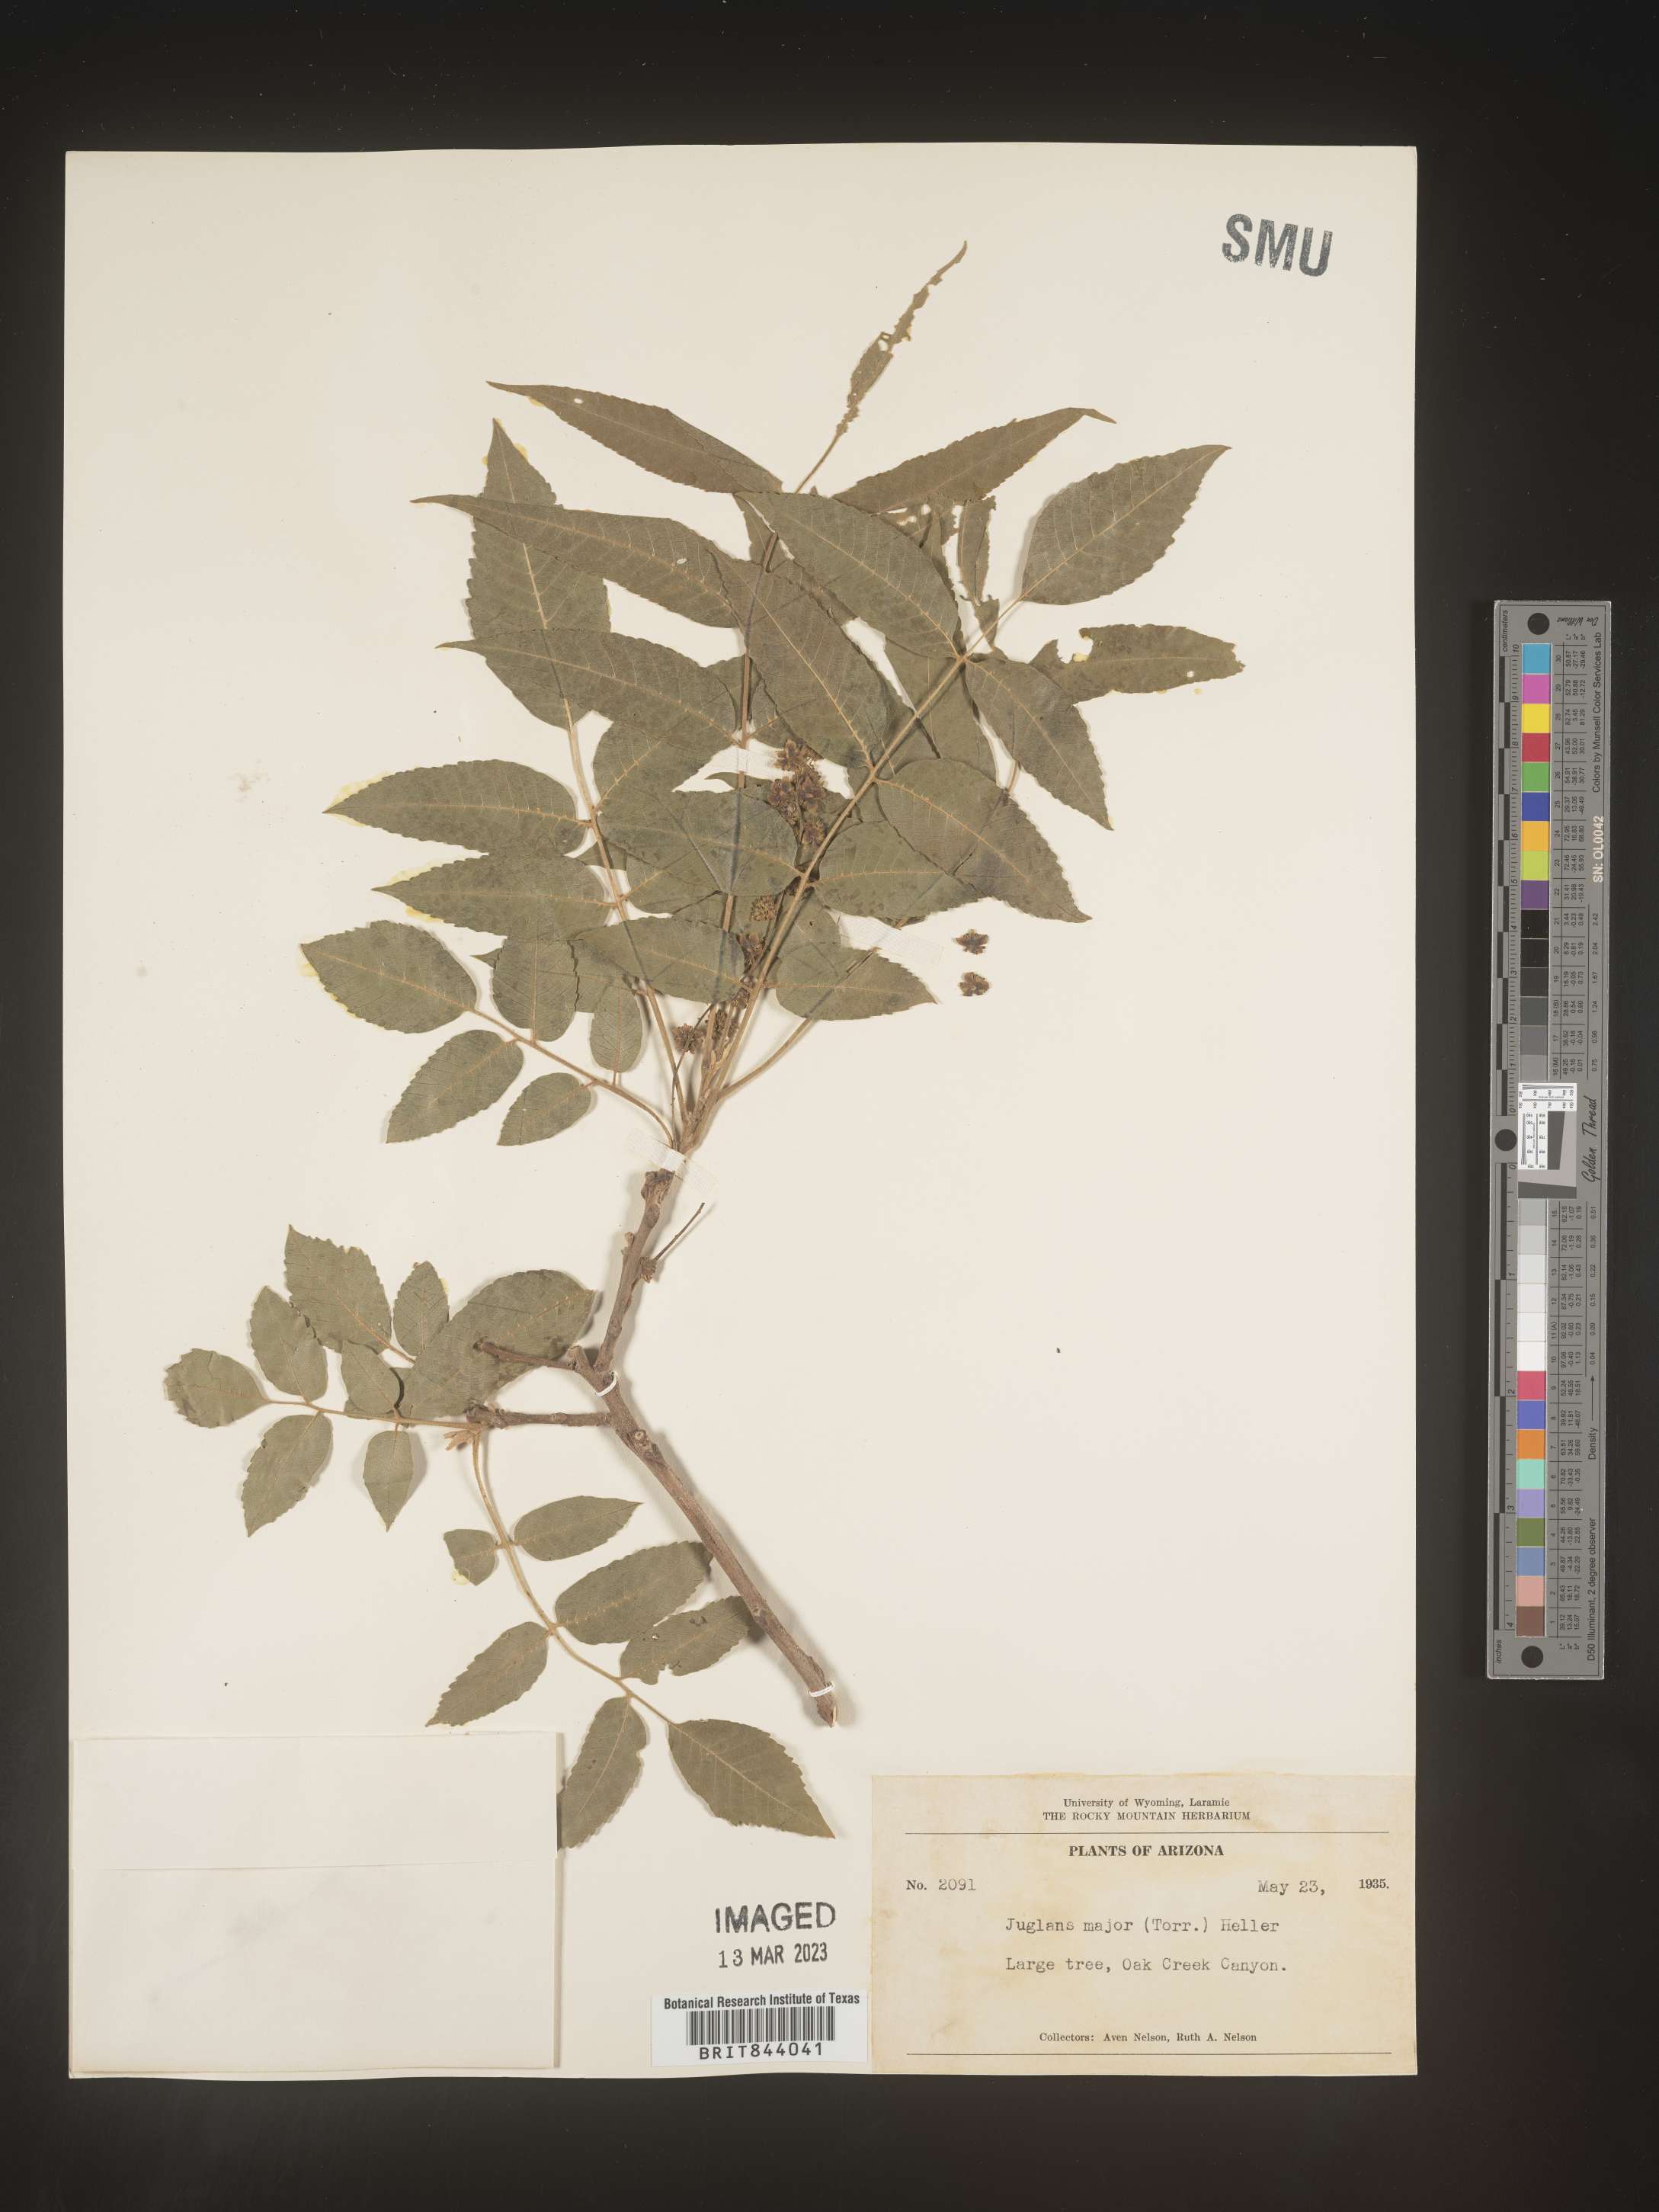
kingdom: Plantae
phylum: Tracheophyta
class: Magnoliopsida
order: Fagales
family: Juglandaceae
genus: Juglans
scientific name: Juglans major
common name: Arizona walnut
